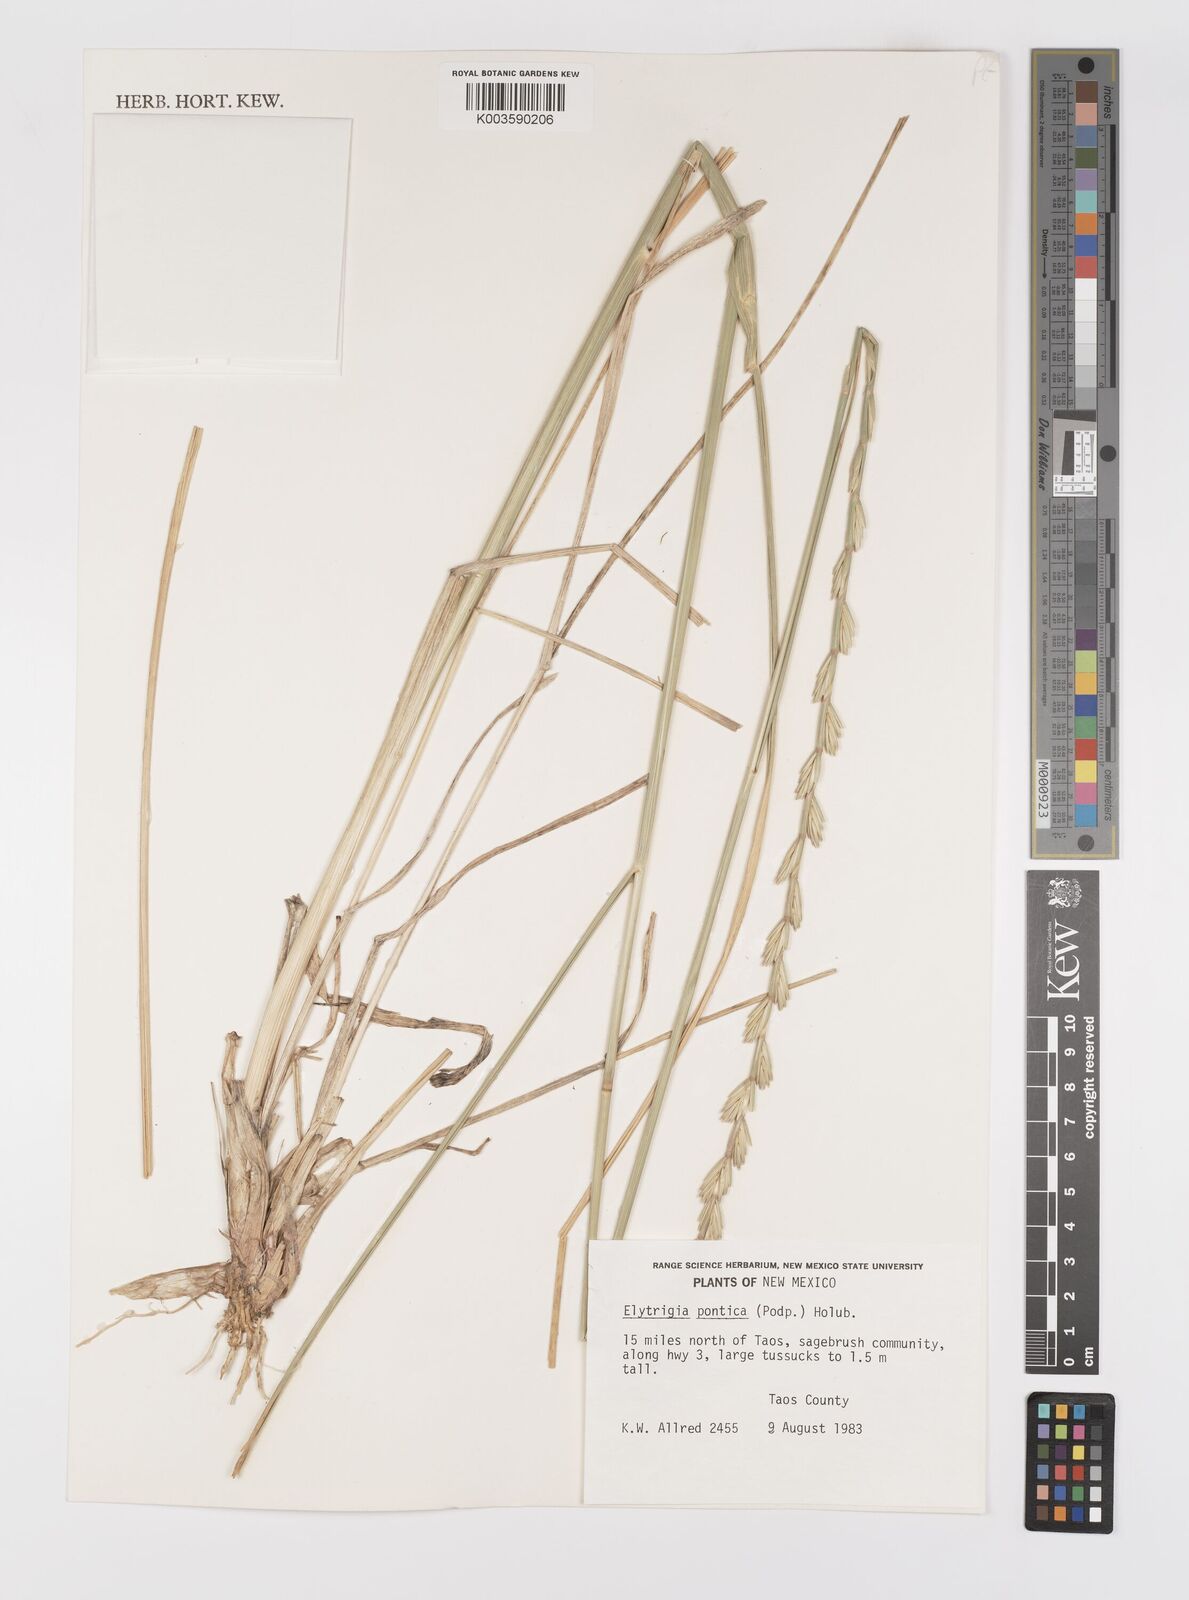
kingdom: Plantae
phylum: Tracheophyta
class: Liliopsida
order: Poales
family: Poaceae
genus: Thinopyrum
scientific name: Thinopyrum elongatum
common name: Tall wheatgrass
